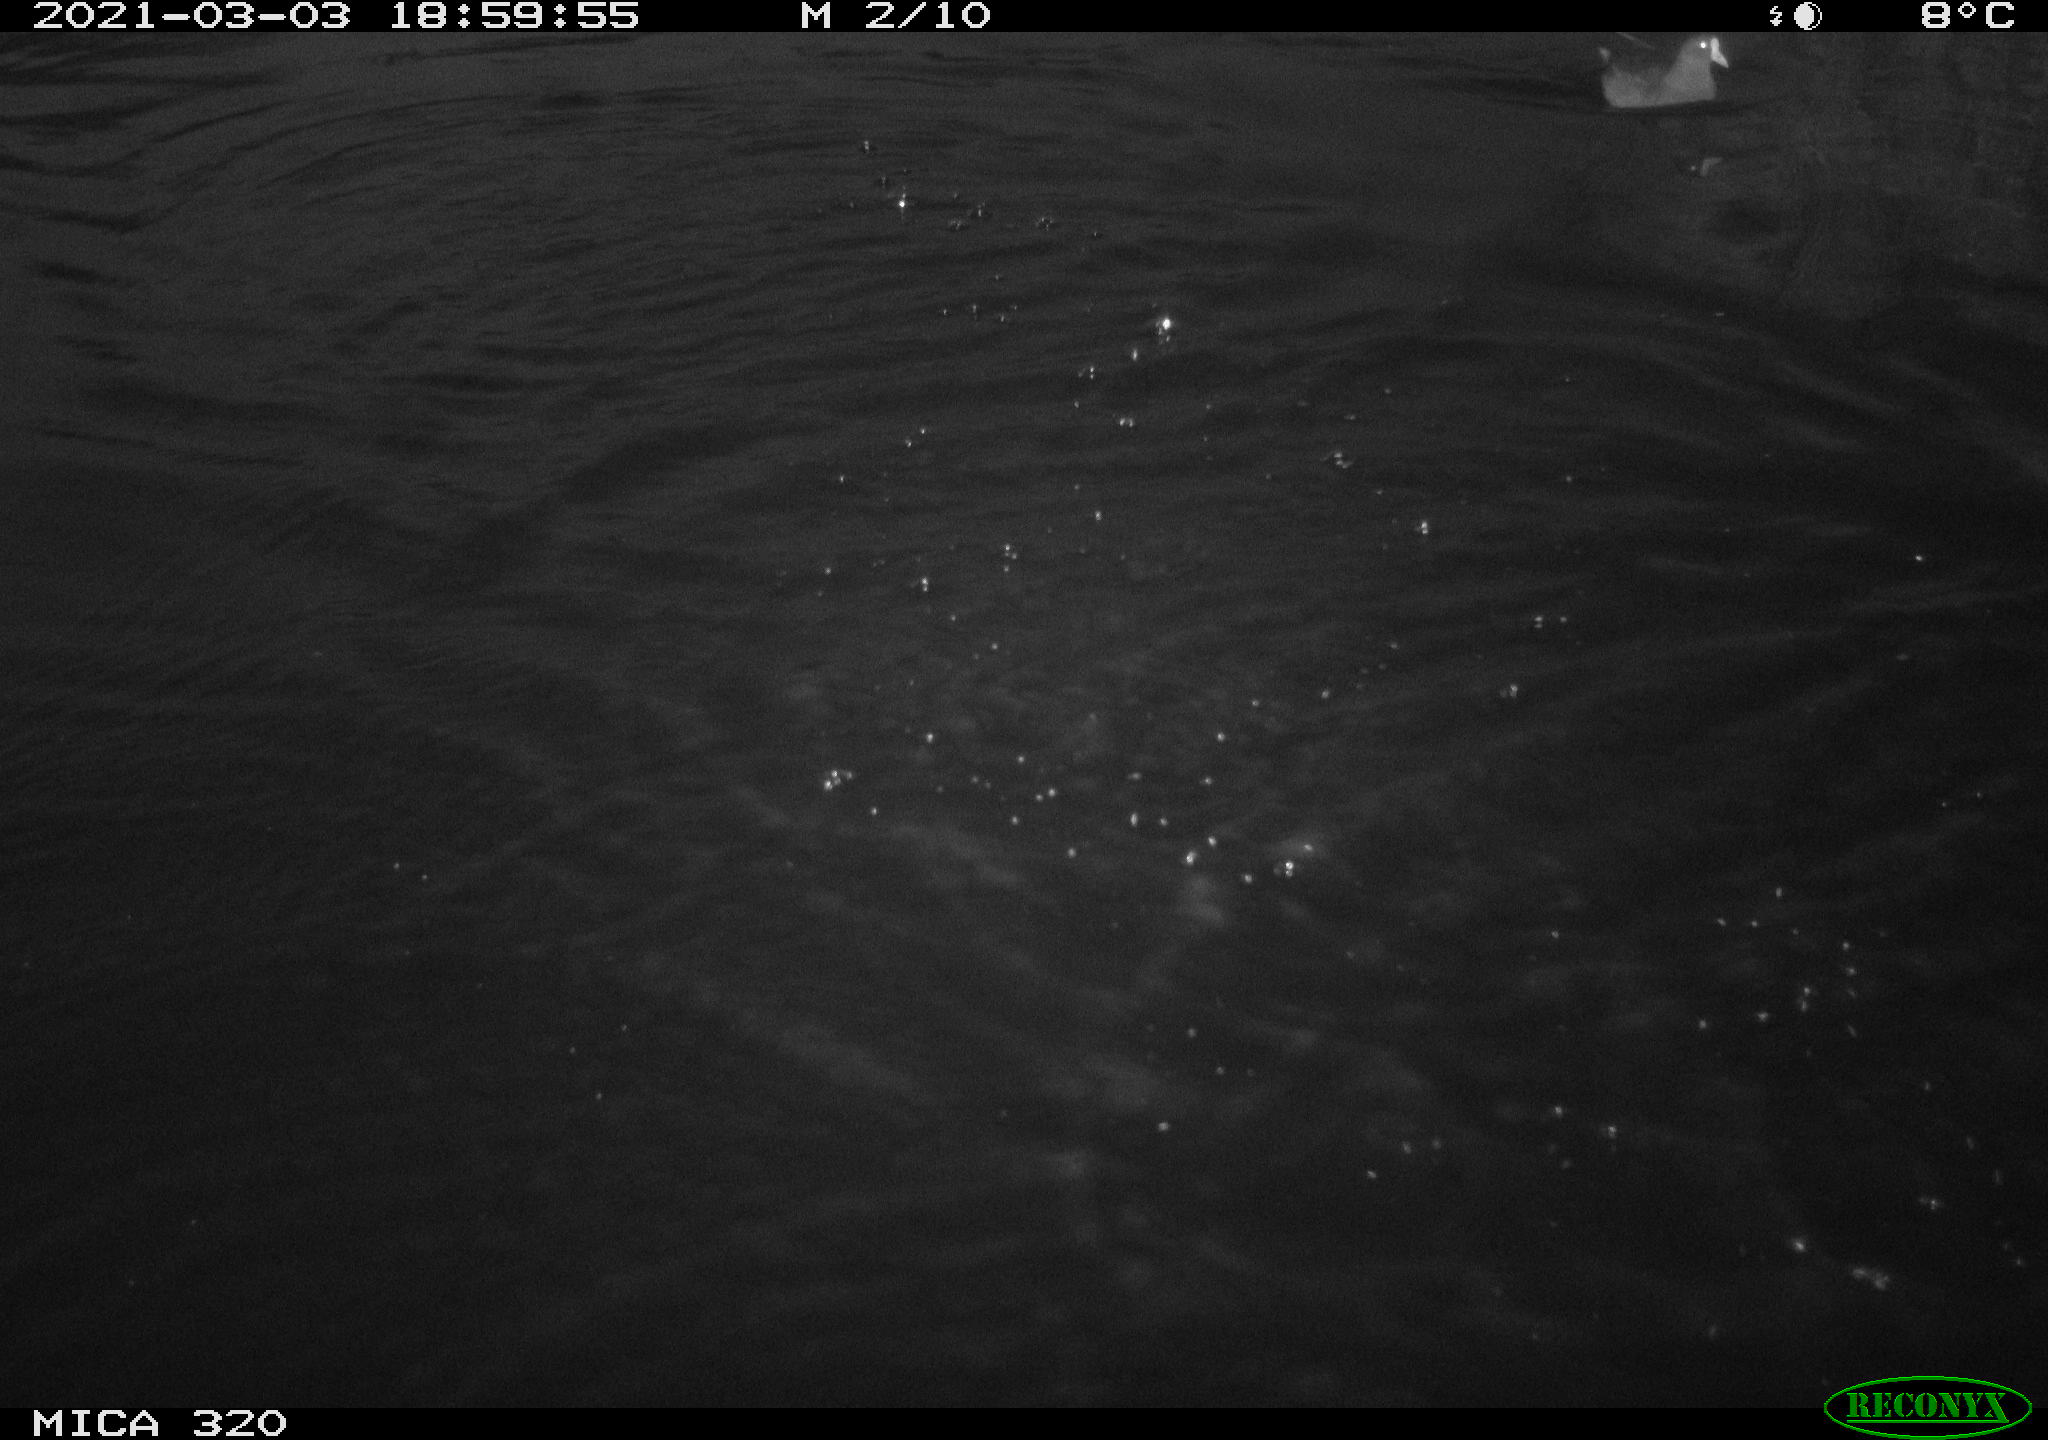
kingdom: Animalia
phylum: Chordata
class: Aves
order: Gruiformes
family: Rallidae
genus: Gallinula
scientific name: Gallinula chloropus
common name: Common moorhen
